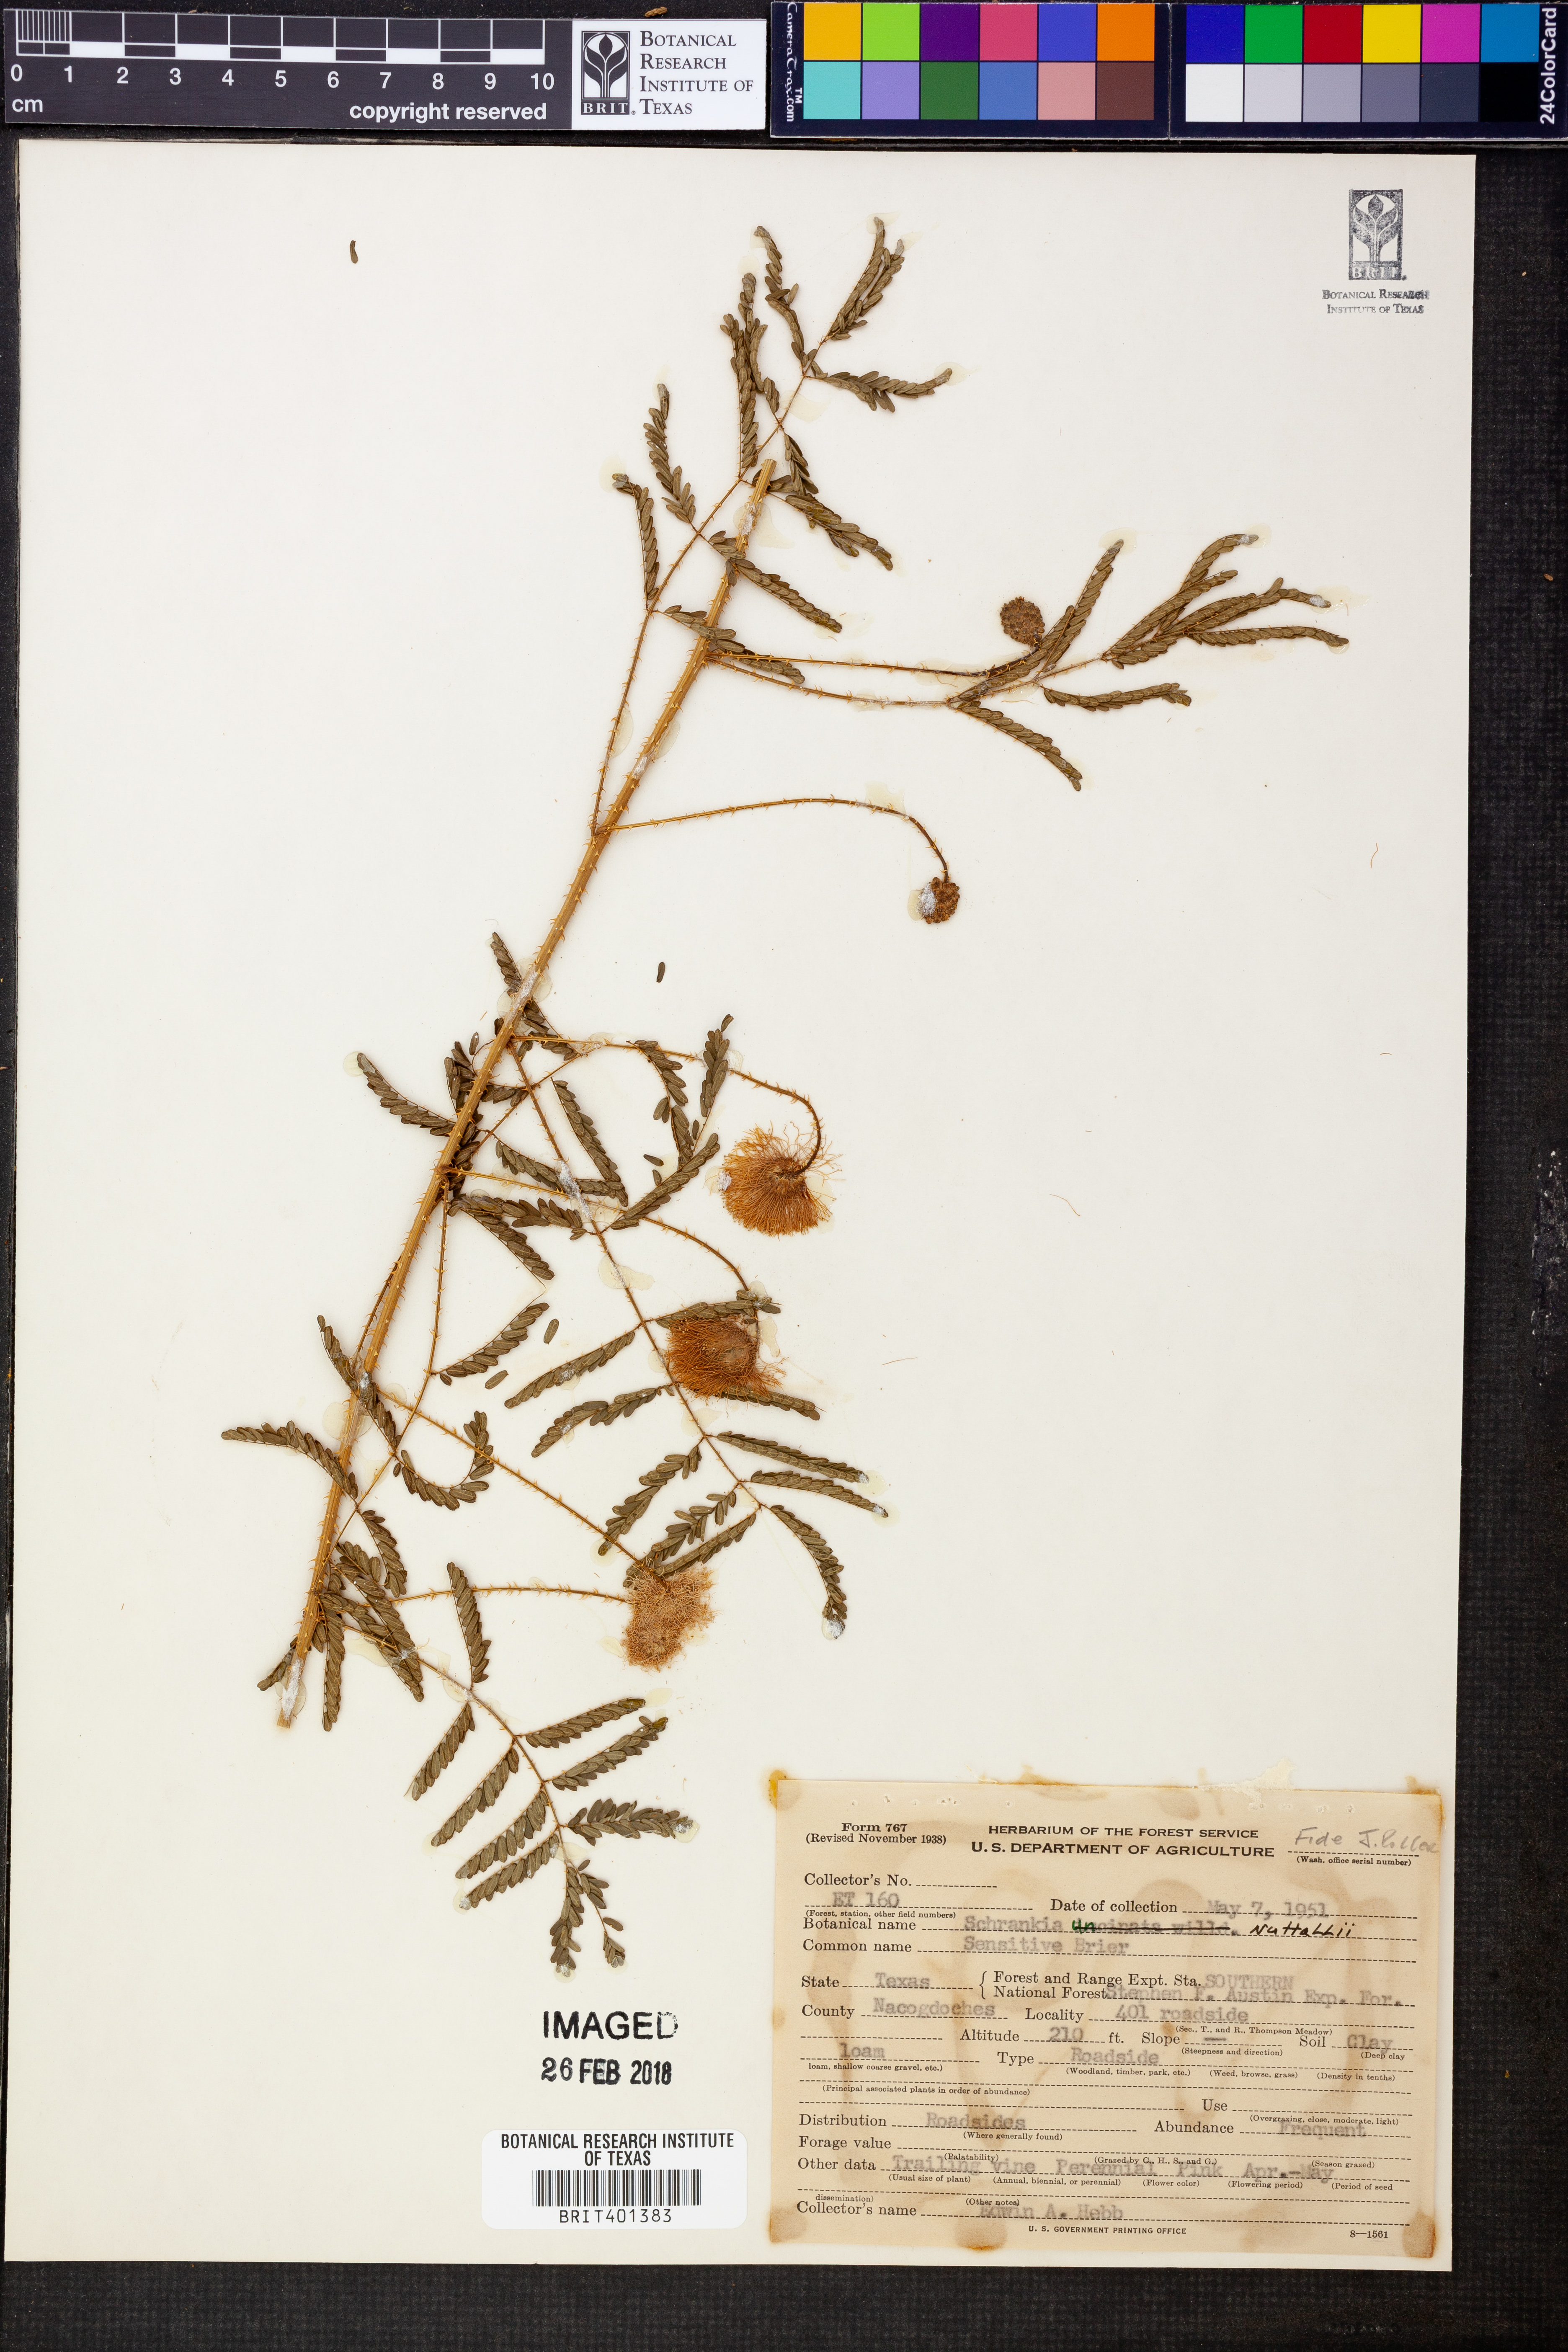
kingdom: Plantae
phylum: Tracheophyta
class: Magnoliopsida
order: Fabales
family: Fabaceae
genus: Mimosa
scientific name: Mimosa quadrivalvis
